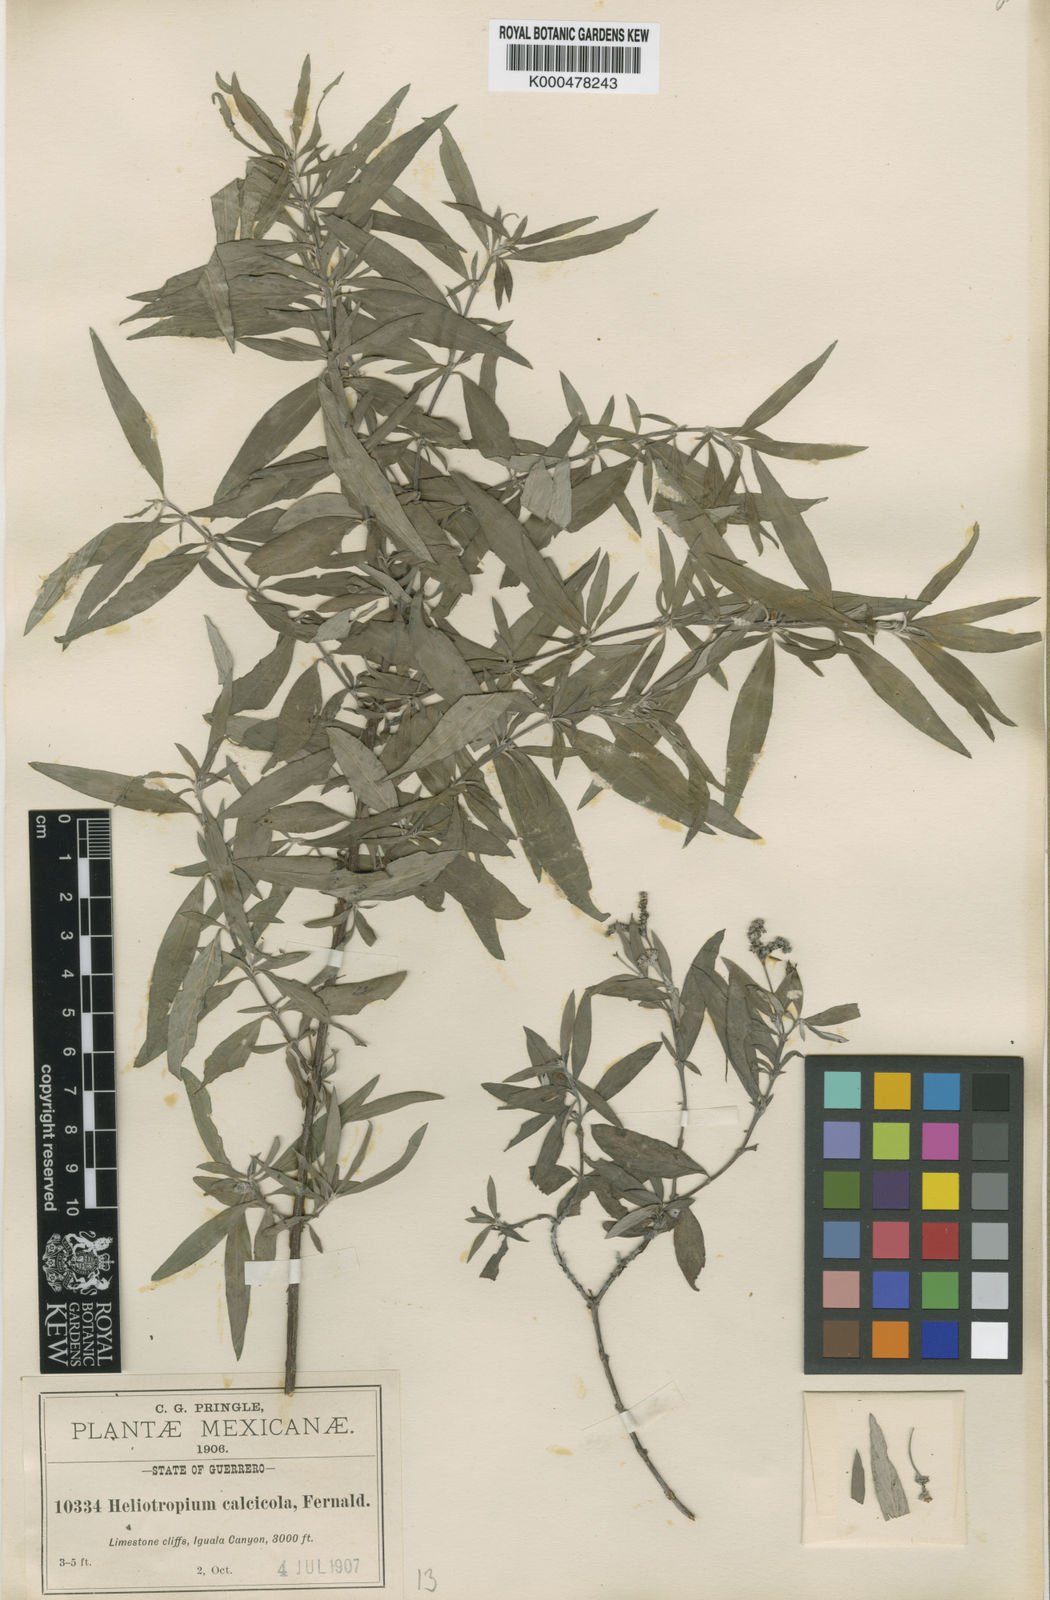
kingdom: Plantae
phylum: Tracheophyta
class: Magnoliopsida
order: Boraginales
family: Heliotropiaceae
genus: Euploca
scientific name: Euploca mexicana
